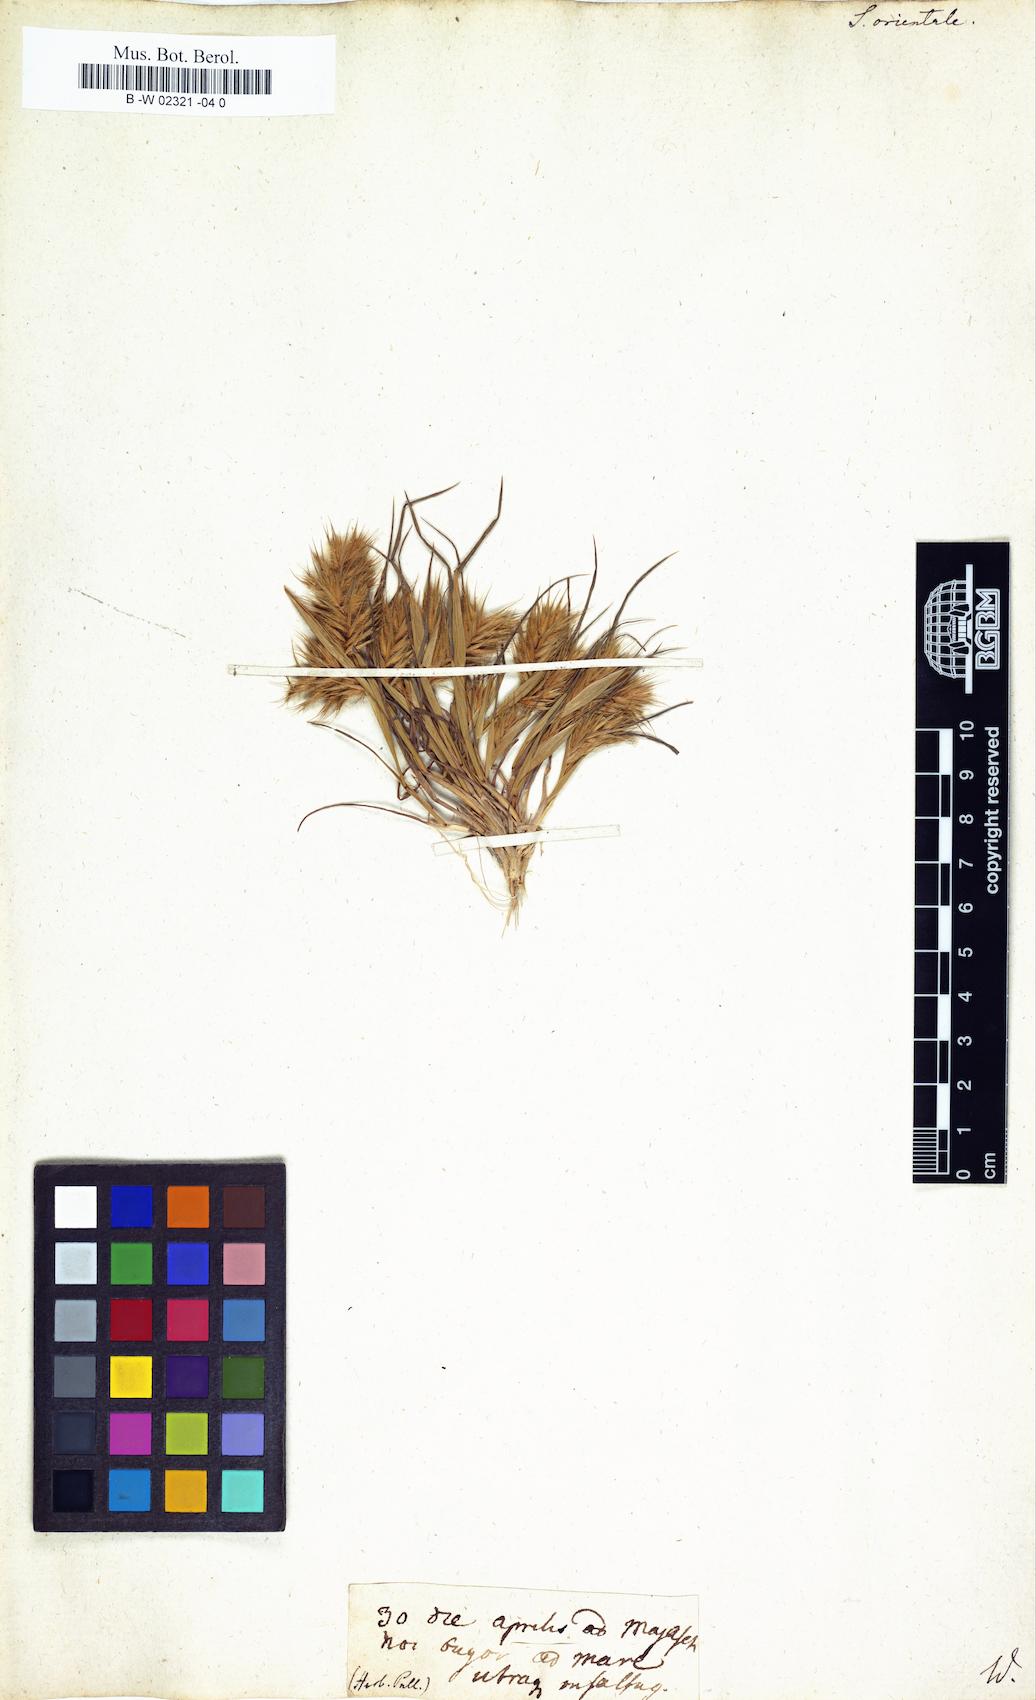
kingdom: Plantae
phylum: Tracheophyta
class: Liliopsida
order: Poales
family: Poaceae
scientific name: Poaceae
